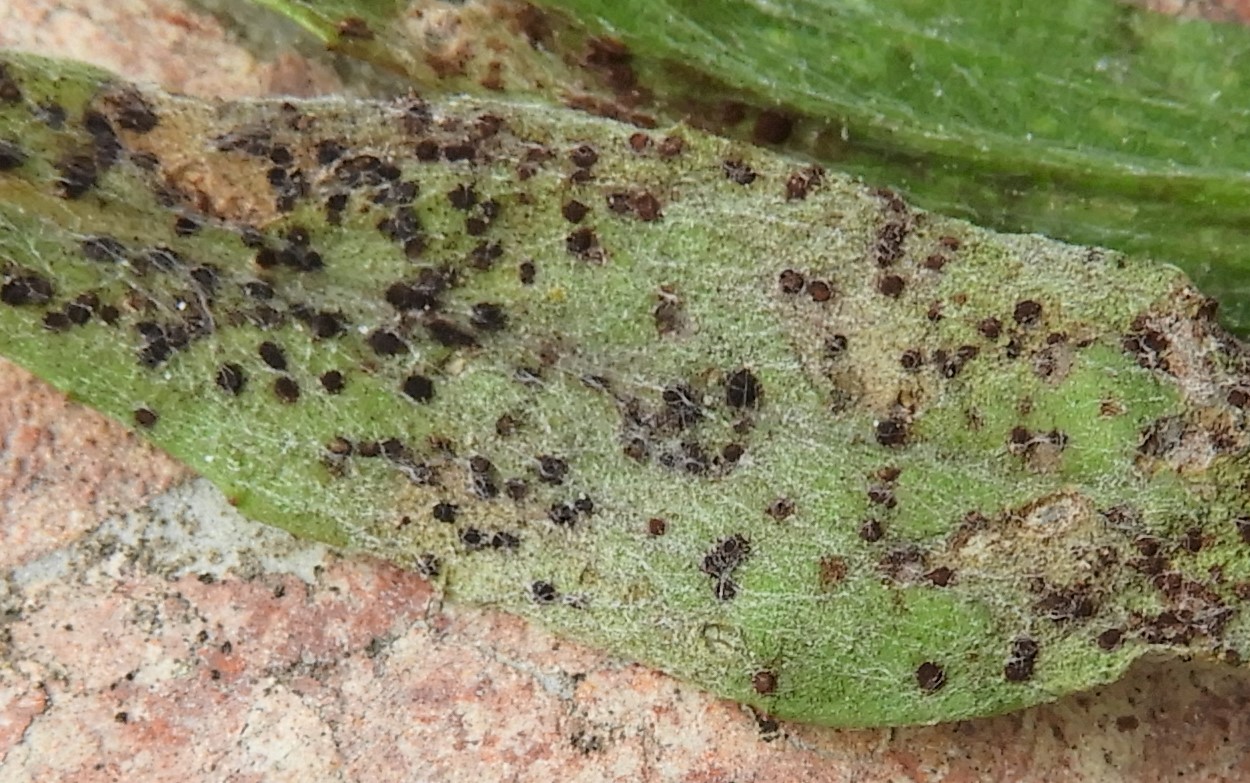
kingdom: Fungi
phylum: Basidiomycota
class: Pucciniomycetes
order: Pucciniales
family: Pucciniaceae
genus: Puccinia
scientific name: Puccinia cyani
